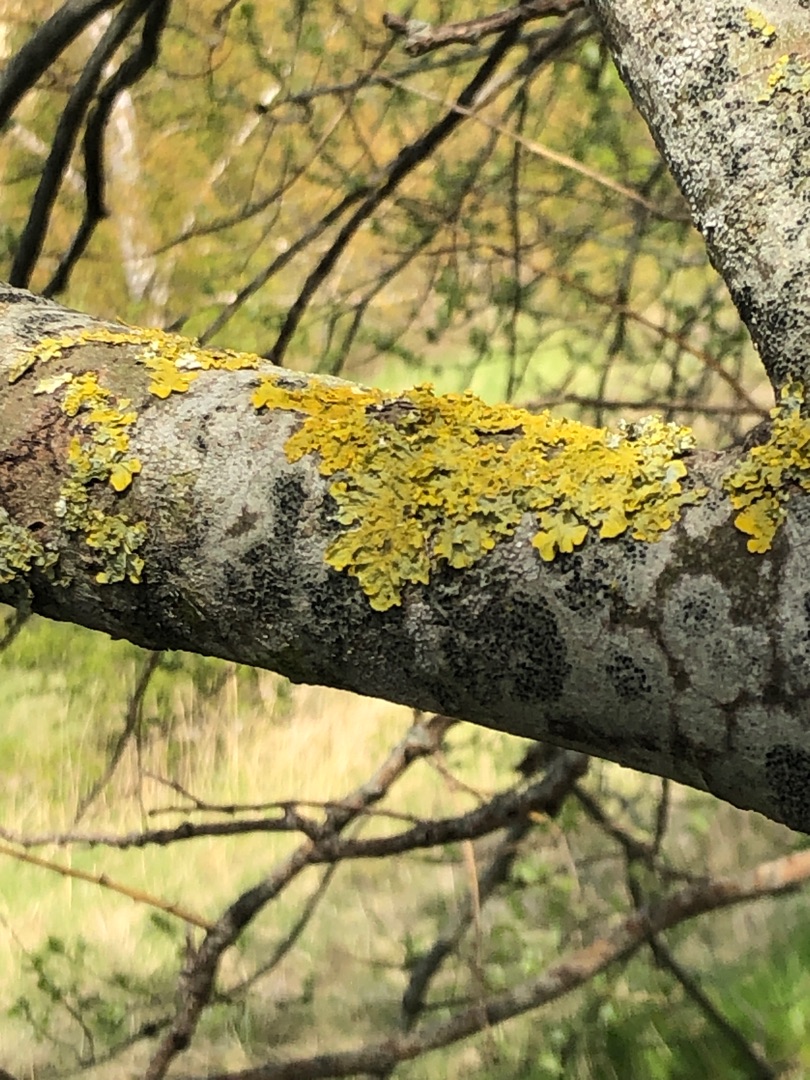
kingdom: Fungi
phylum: Ascomycota
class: Lecanoromycetes
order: Teloschistales
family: Teloschistaceae
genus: Xanthoria
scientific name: Xanthoria parietina
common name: Almindelig væggelav
